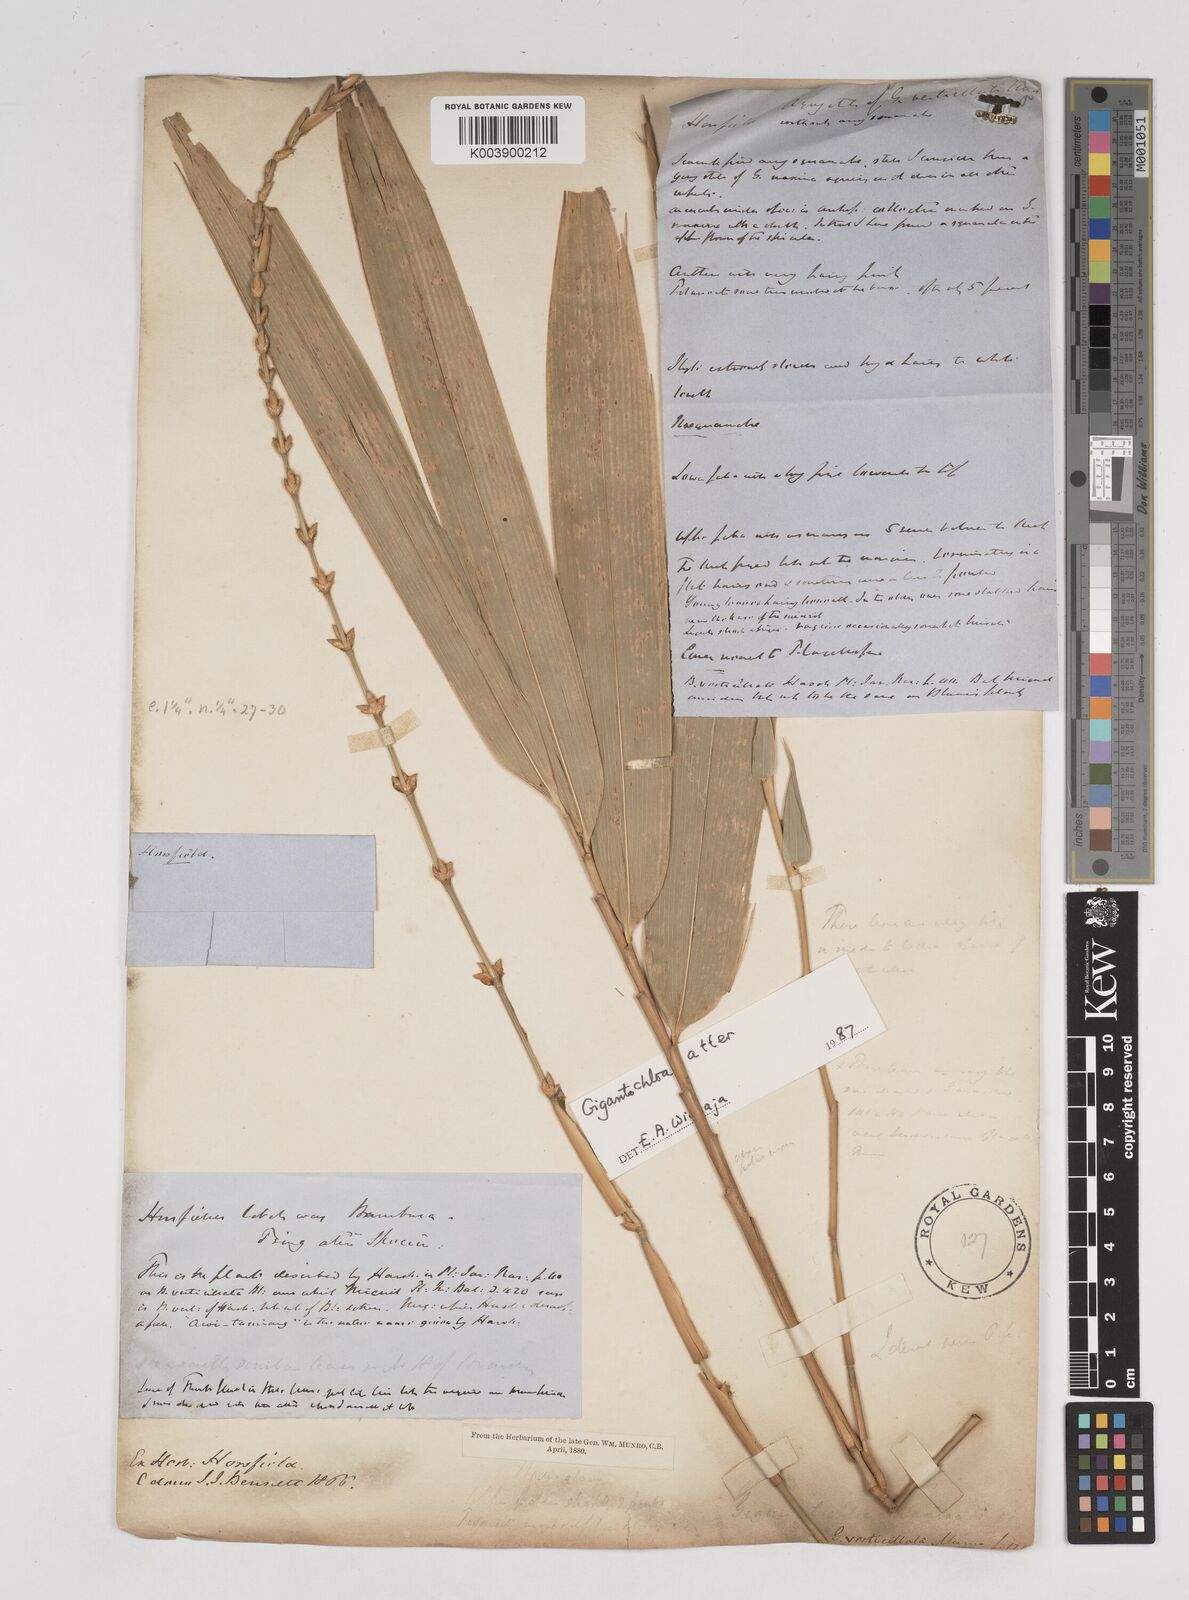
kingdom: Plantae
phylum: Tracheophyta
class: Liliopsida
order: Poales
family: Poaceae
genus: Gigantochloa
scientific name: Gigantochloa atter
